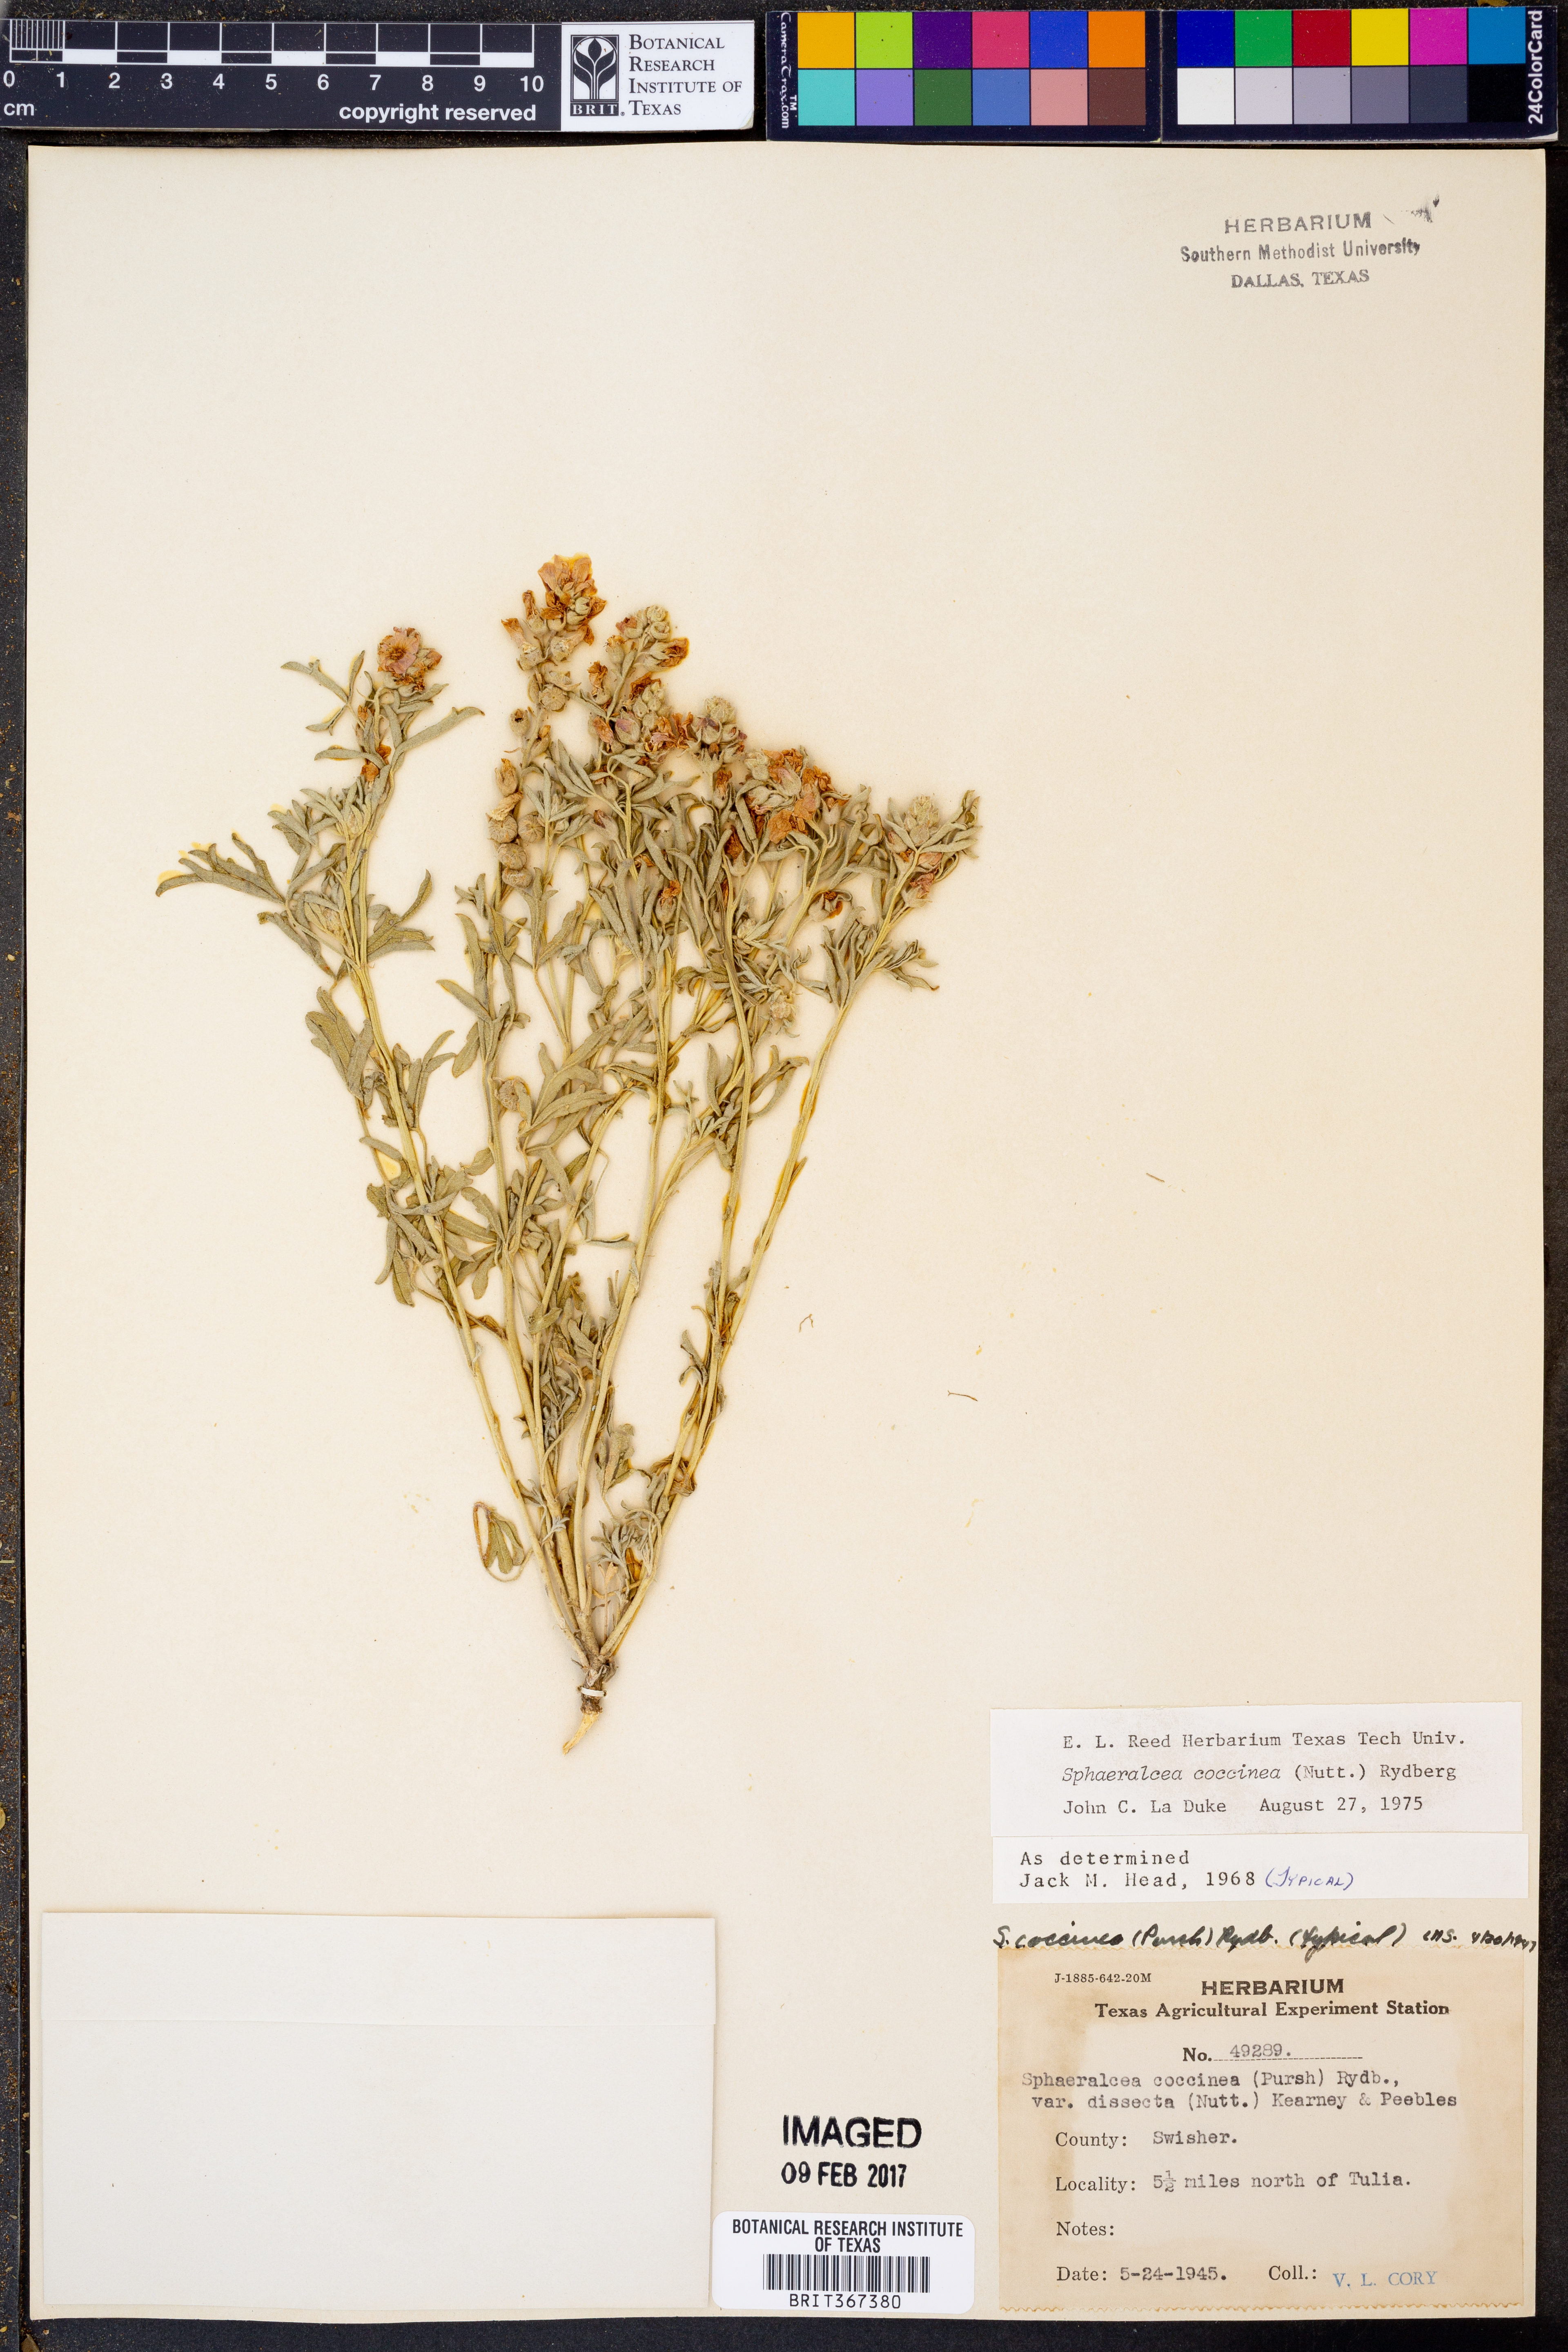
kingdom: Plantae
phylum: Tracheophyta
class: Magnoliopsida
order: Malvales
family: Malvaceae
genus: Sphaeralcea
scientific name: Sphaeralcea coccinea
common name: Moss-rose
